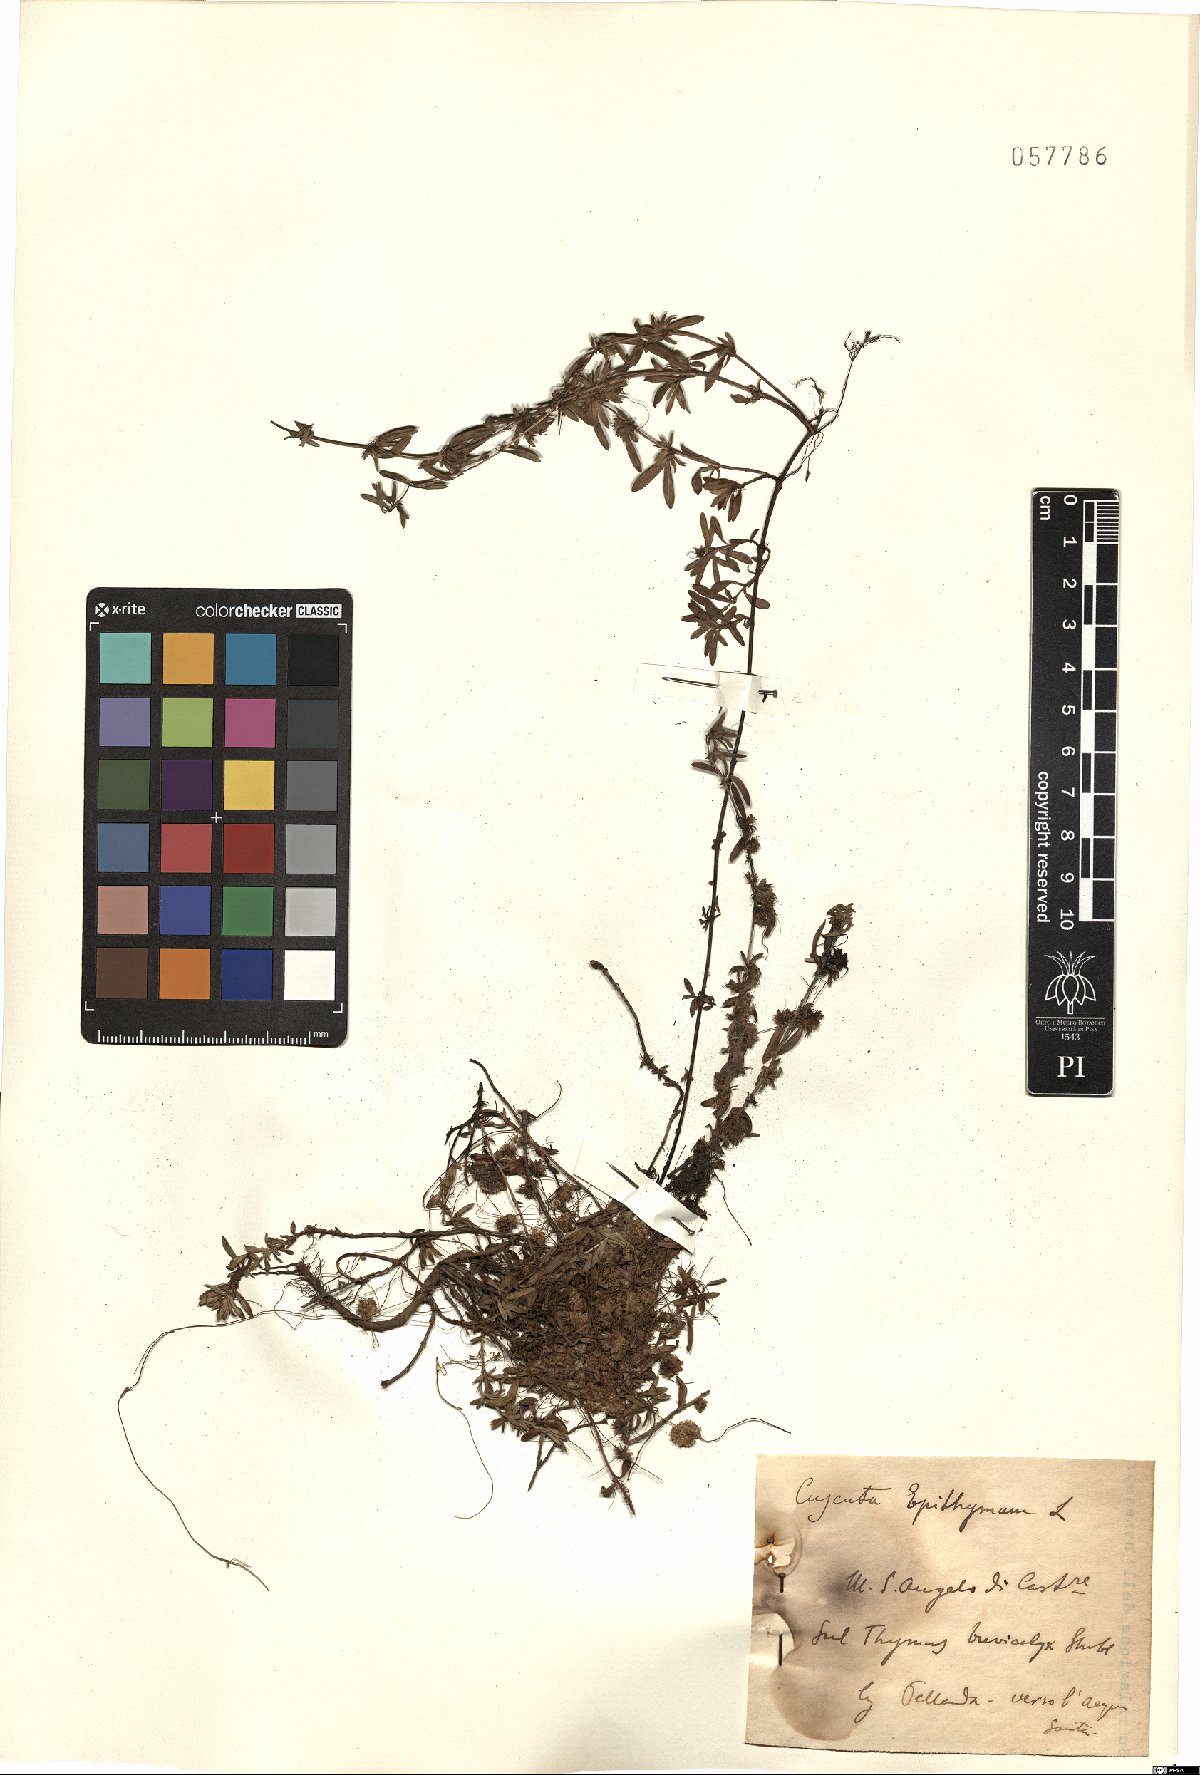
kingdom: Plantae
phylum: Tracheophyta
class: Magnoliopsida
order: Solanales
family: Convolvulaceae
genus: Cuscuta
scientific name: Cuscuta epithymum
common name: Clover dodder
